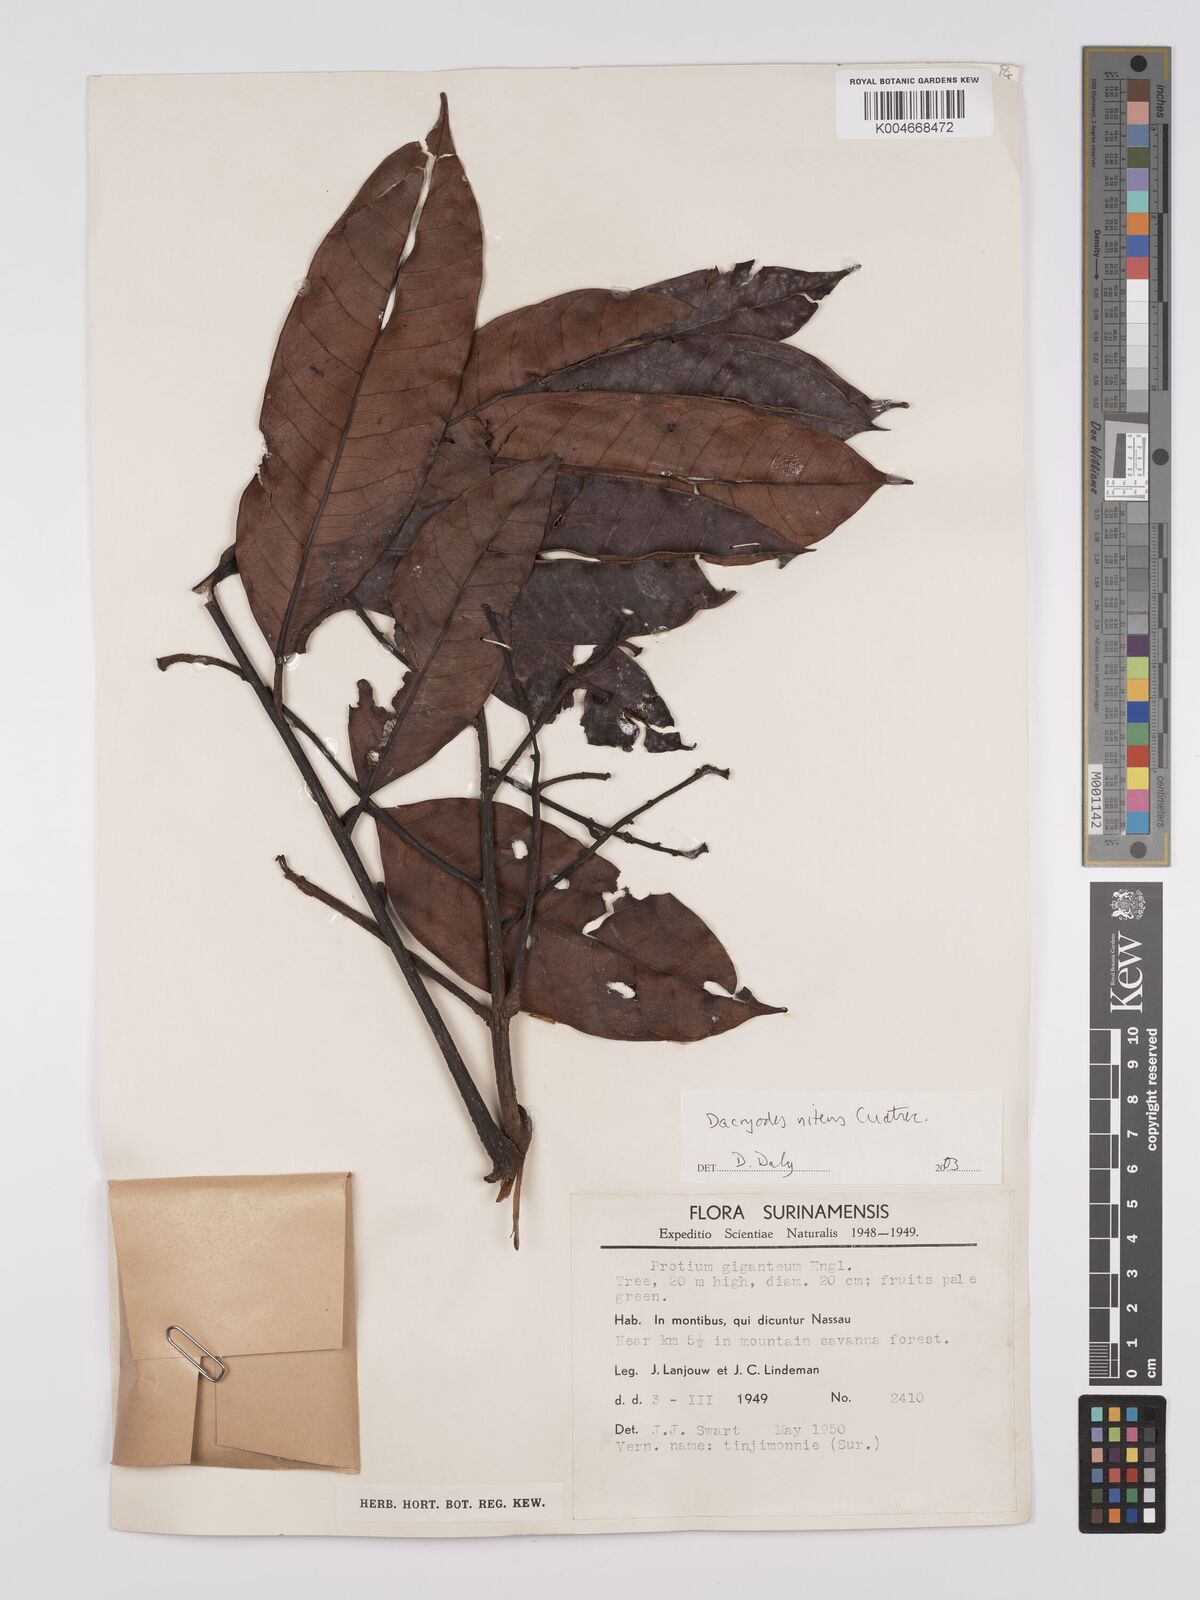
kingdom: Plantae
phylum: Tracheophyta
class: Magnoliopsida
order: Sapindales
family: Burseraceae
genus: Dacryodes
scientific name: Dacryodes nitens
